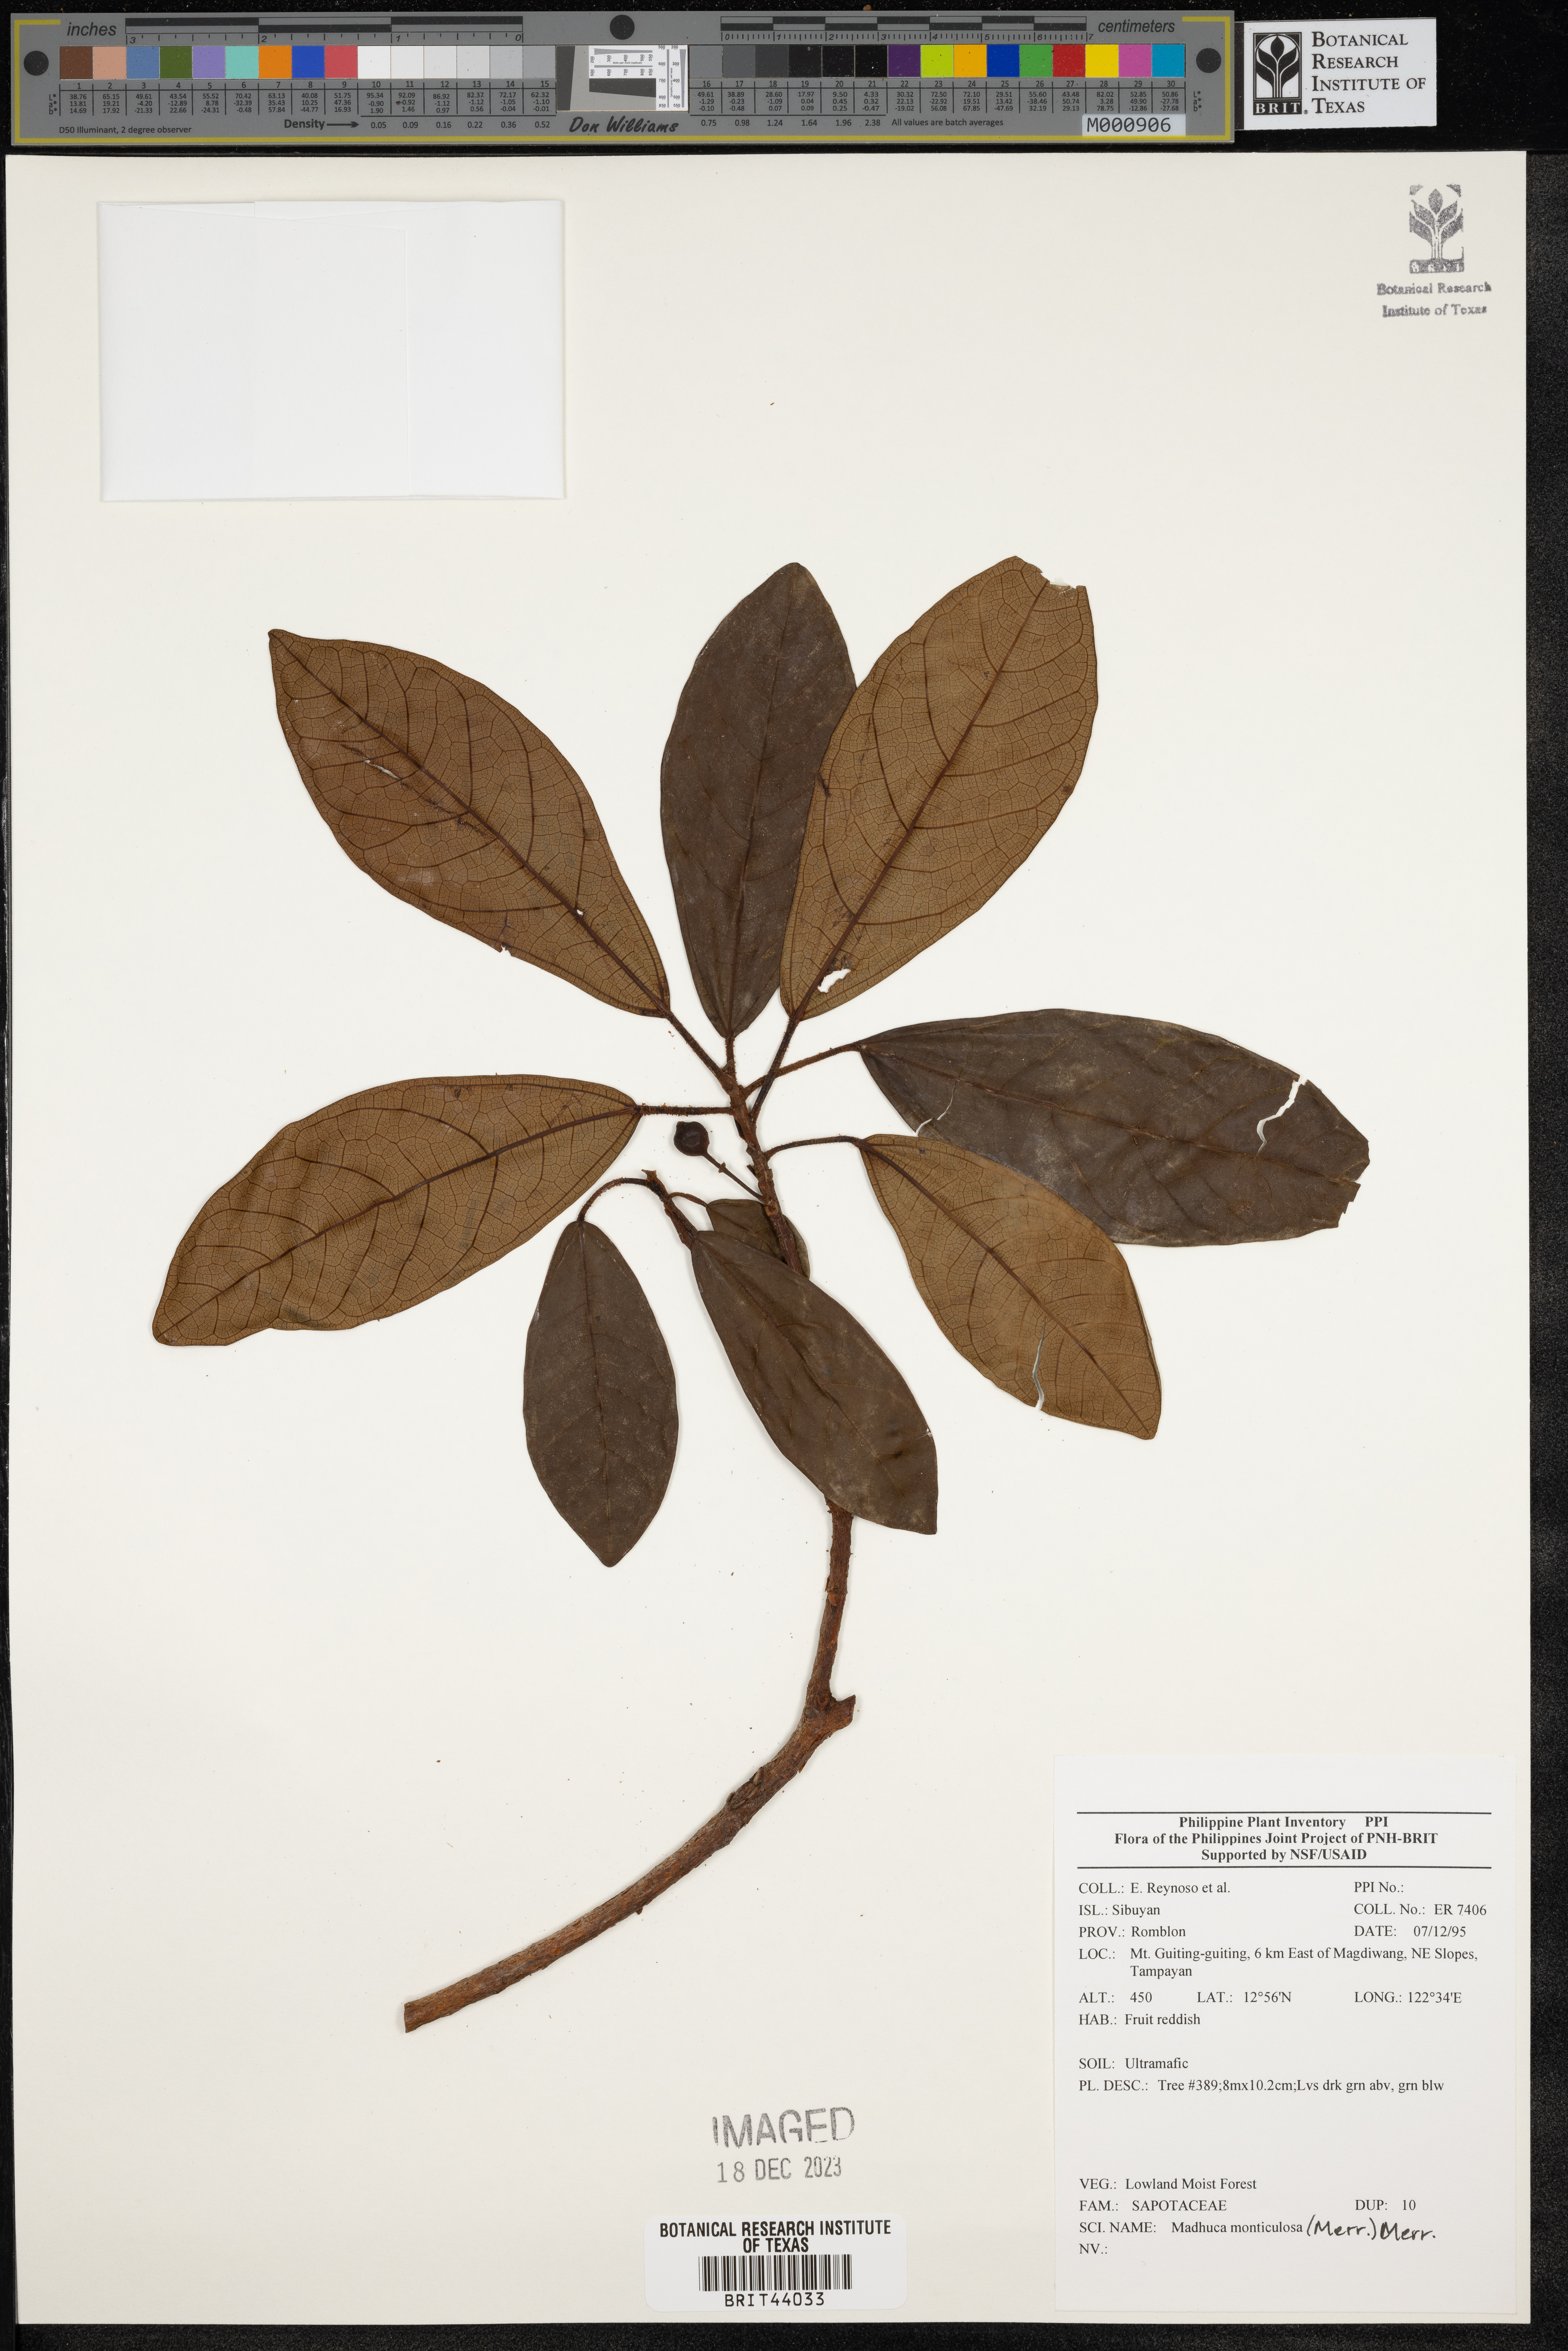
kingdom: Plantae
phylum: Tracheophyta
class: Magnoliopsida
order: Ericales
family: Sapotaceae
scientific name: Sapotaceae
